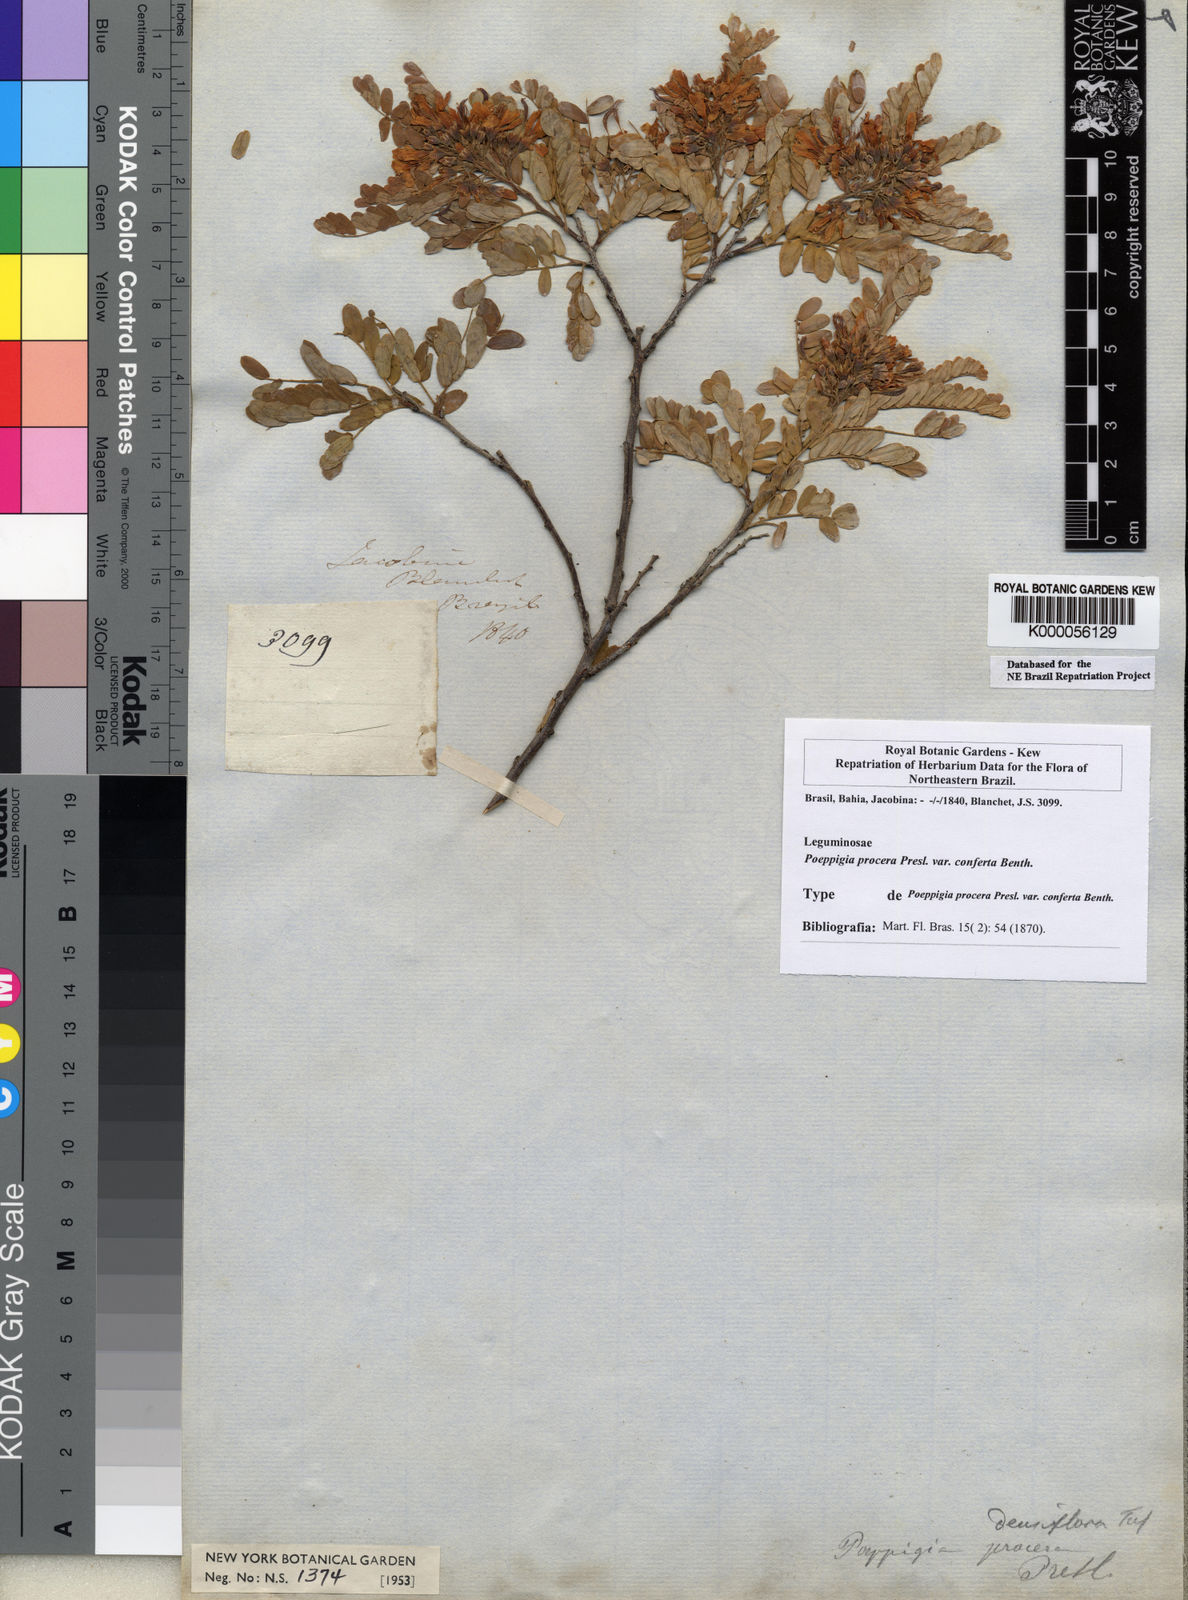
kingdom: Plantae
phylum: Tracheophyta
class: Magnoliopsida
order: Fabales
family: Fabaceae
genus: Poeppigia
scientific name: Poeppigia procera
